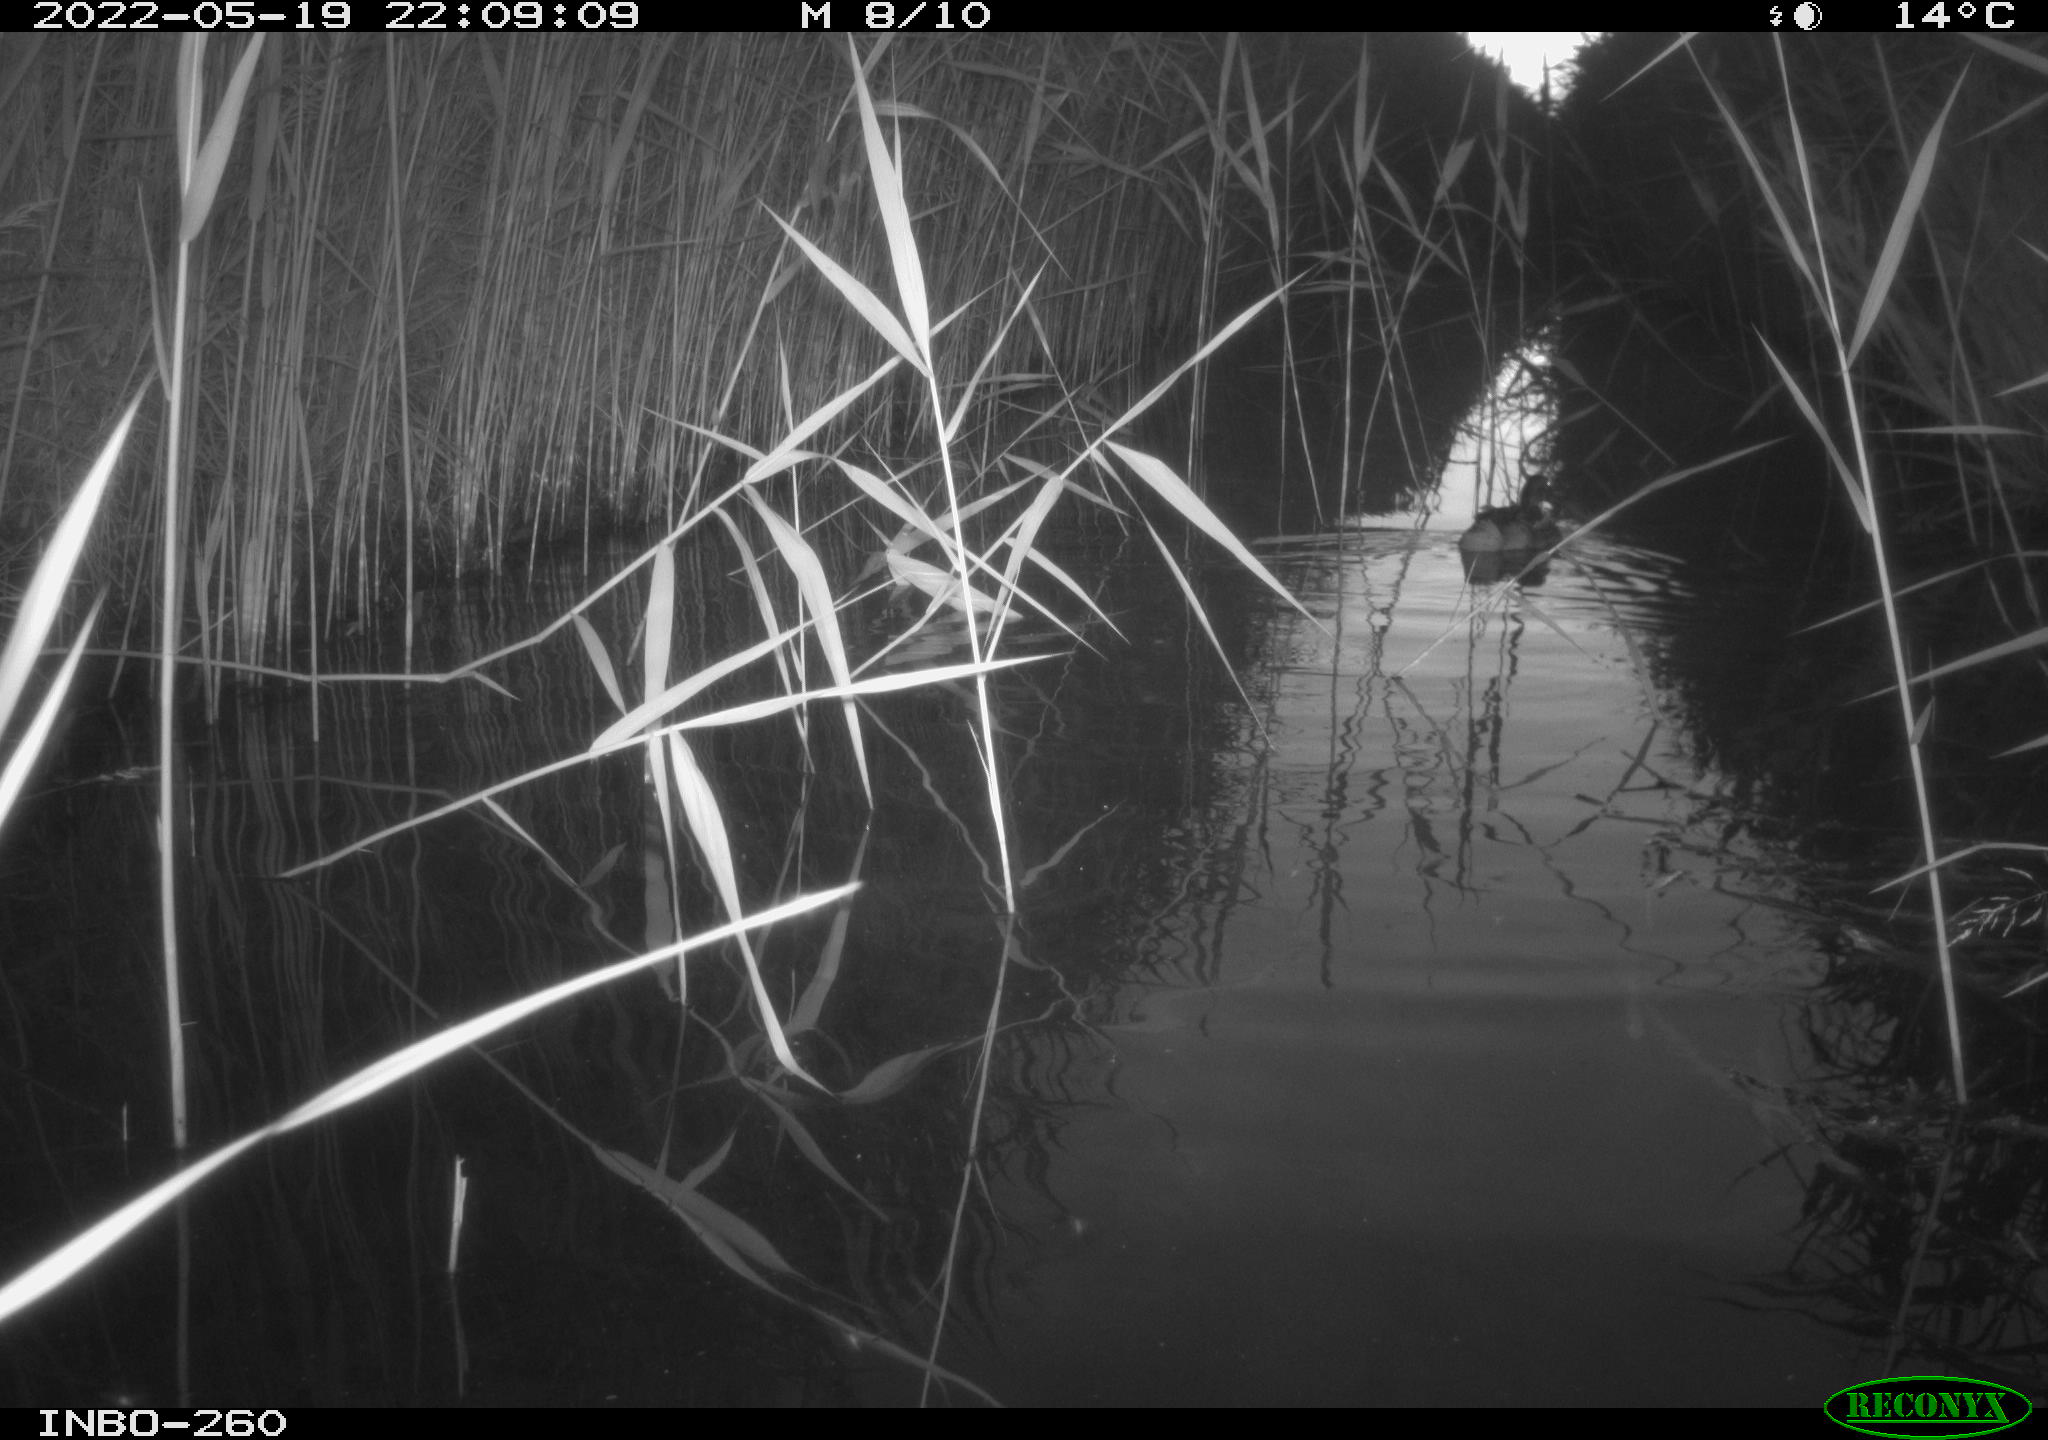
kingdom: Animalia
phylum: Chordata
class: Aves
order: Anseriformes
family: Anatidae
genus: Anas
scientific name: Anas platyrhynchos
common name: Mallard
